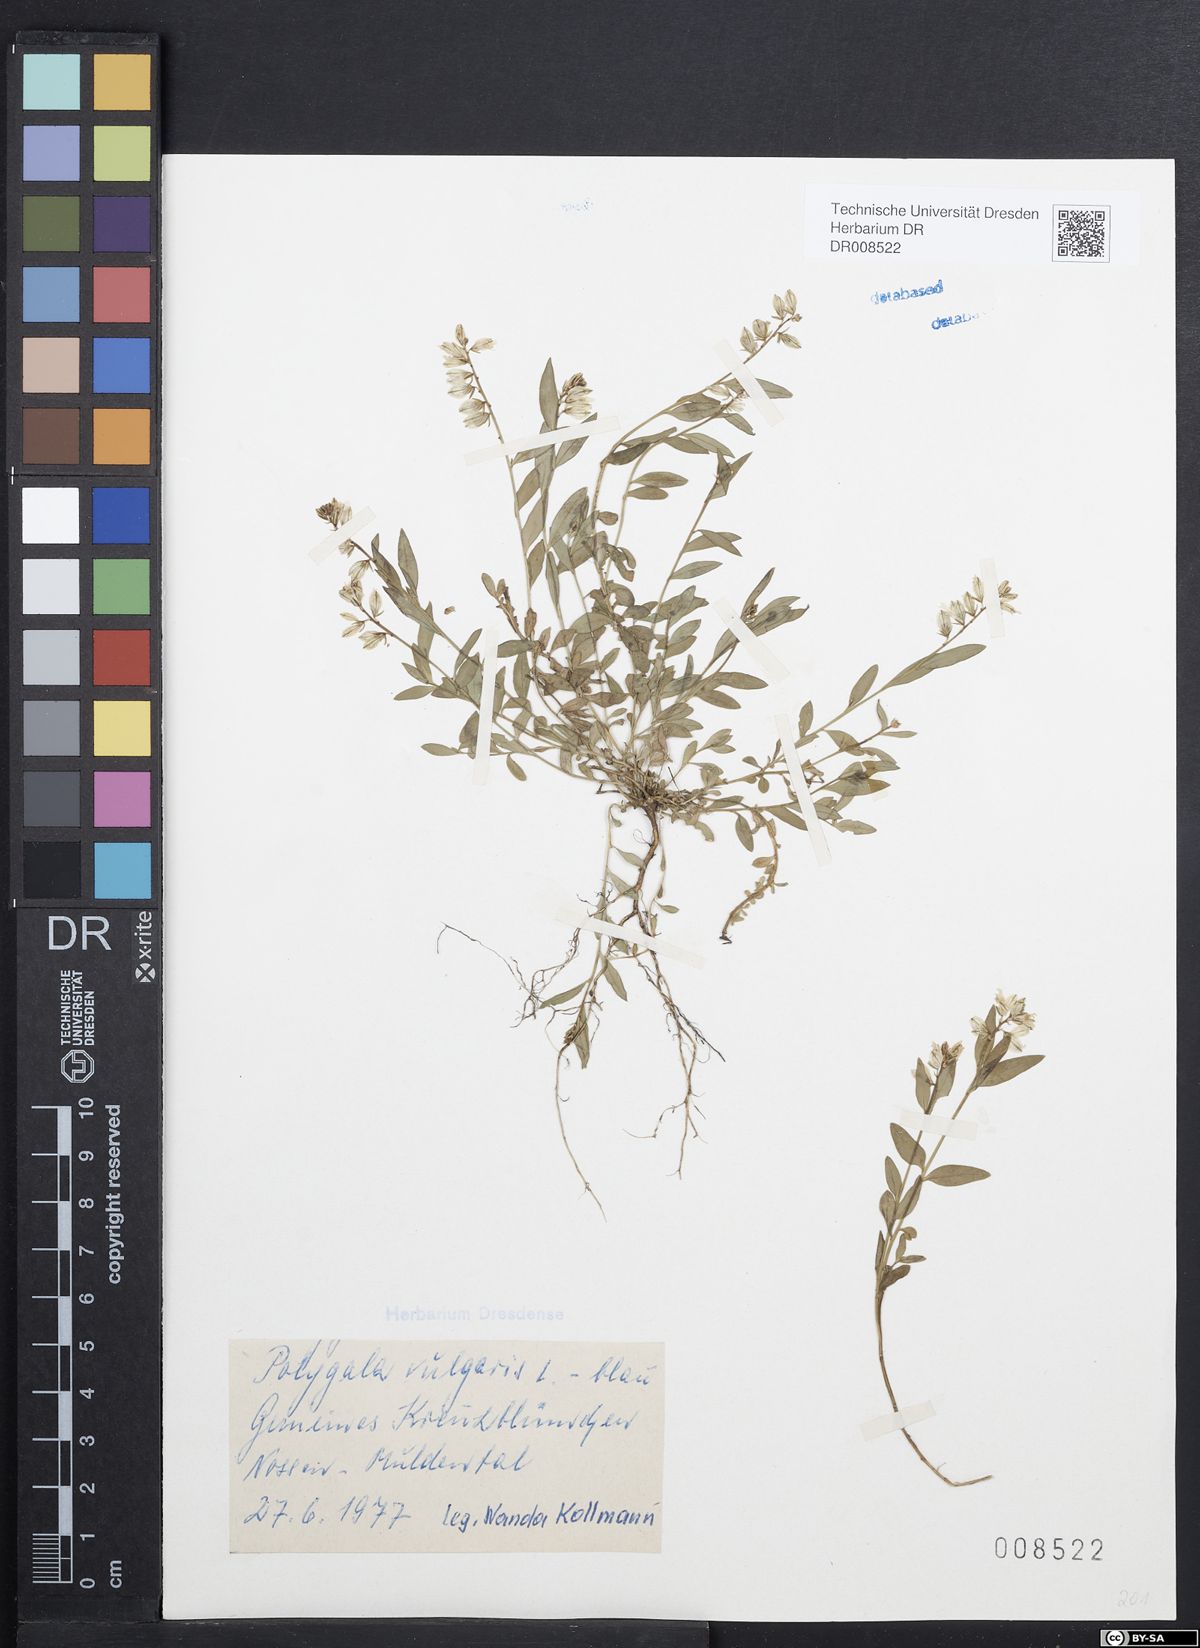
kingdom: Plantae
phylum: Tracheophyta
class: Magnoliopsida
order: Fabales
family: Polygalaceae
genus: Polygala
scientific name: Polygala vulgaris
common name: Common milkwort
